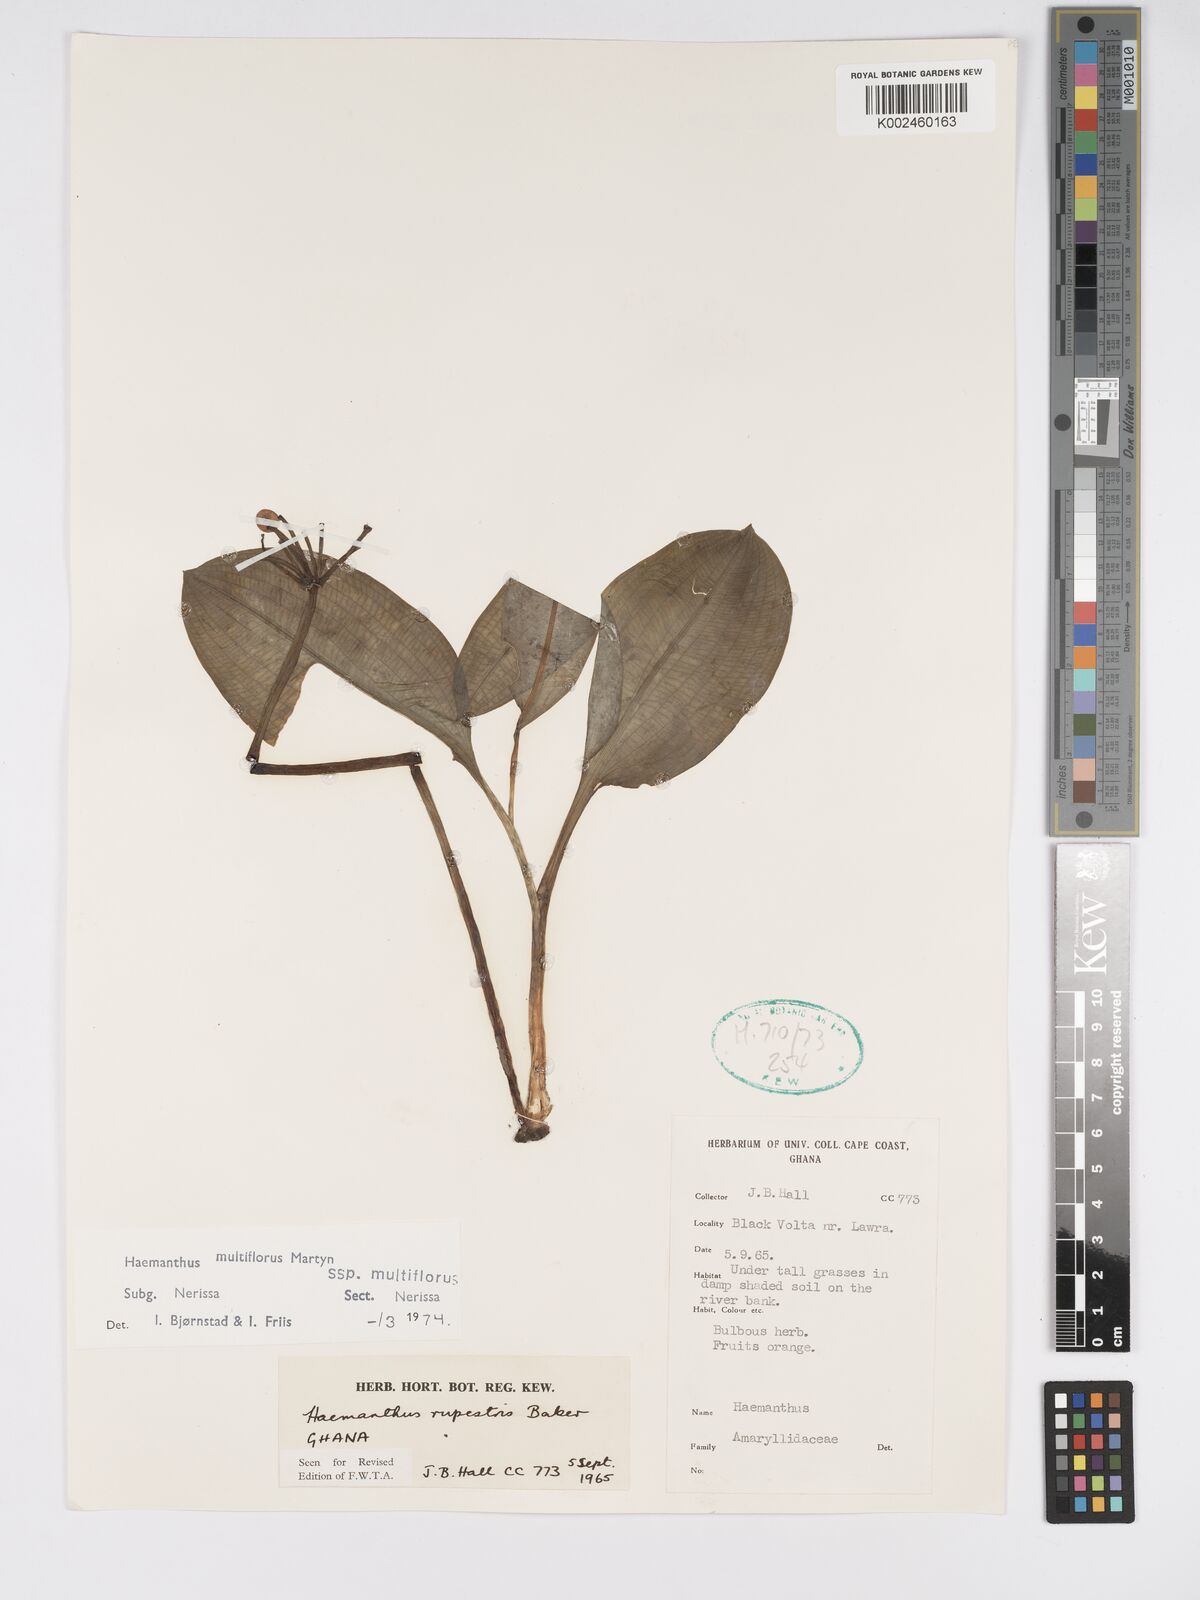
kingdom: Plantae
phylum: Tracheophyta
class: Liliopsida
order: Asparagales
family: Amaryllidaceae
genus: Scadoxus
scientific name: Scadoxus multiflorus
